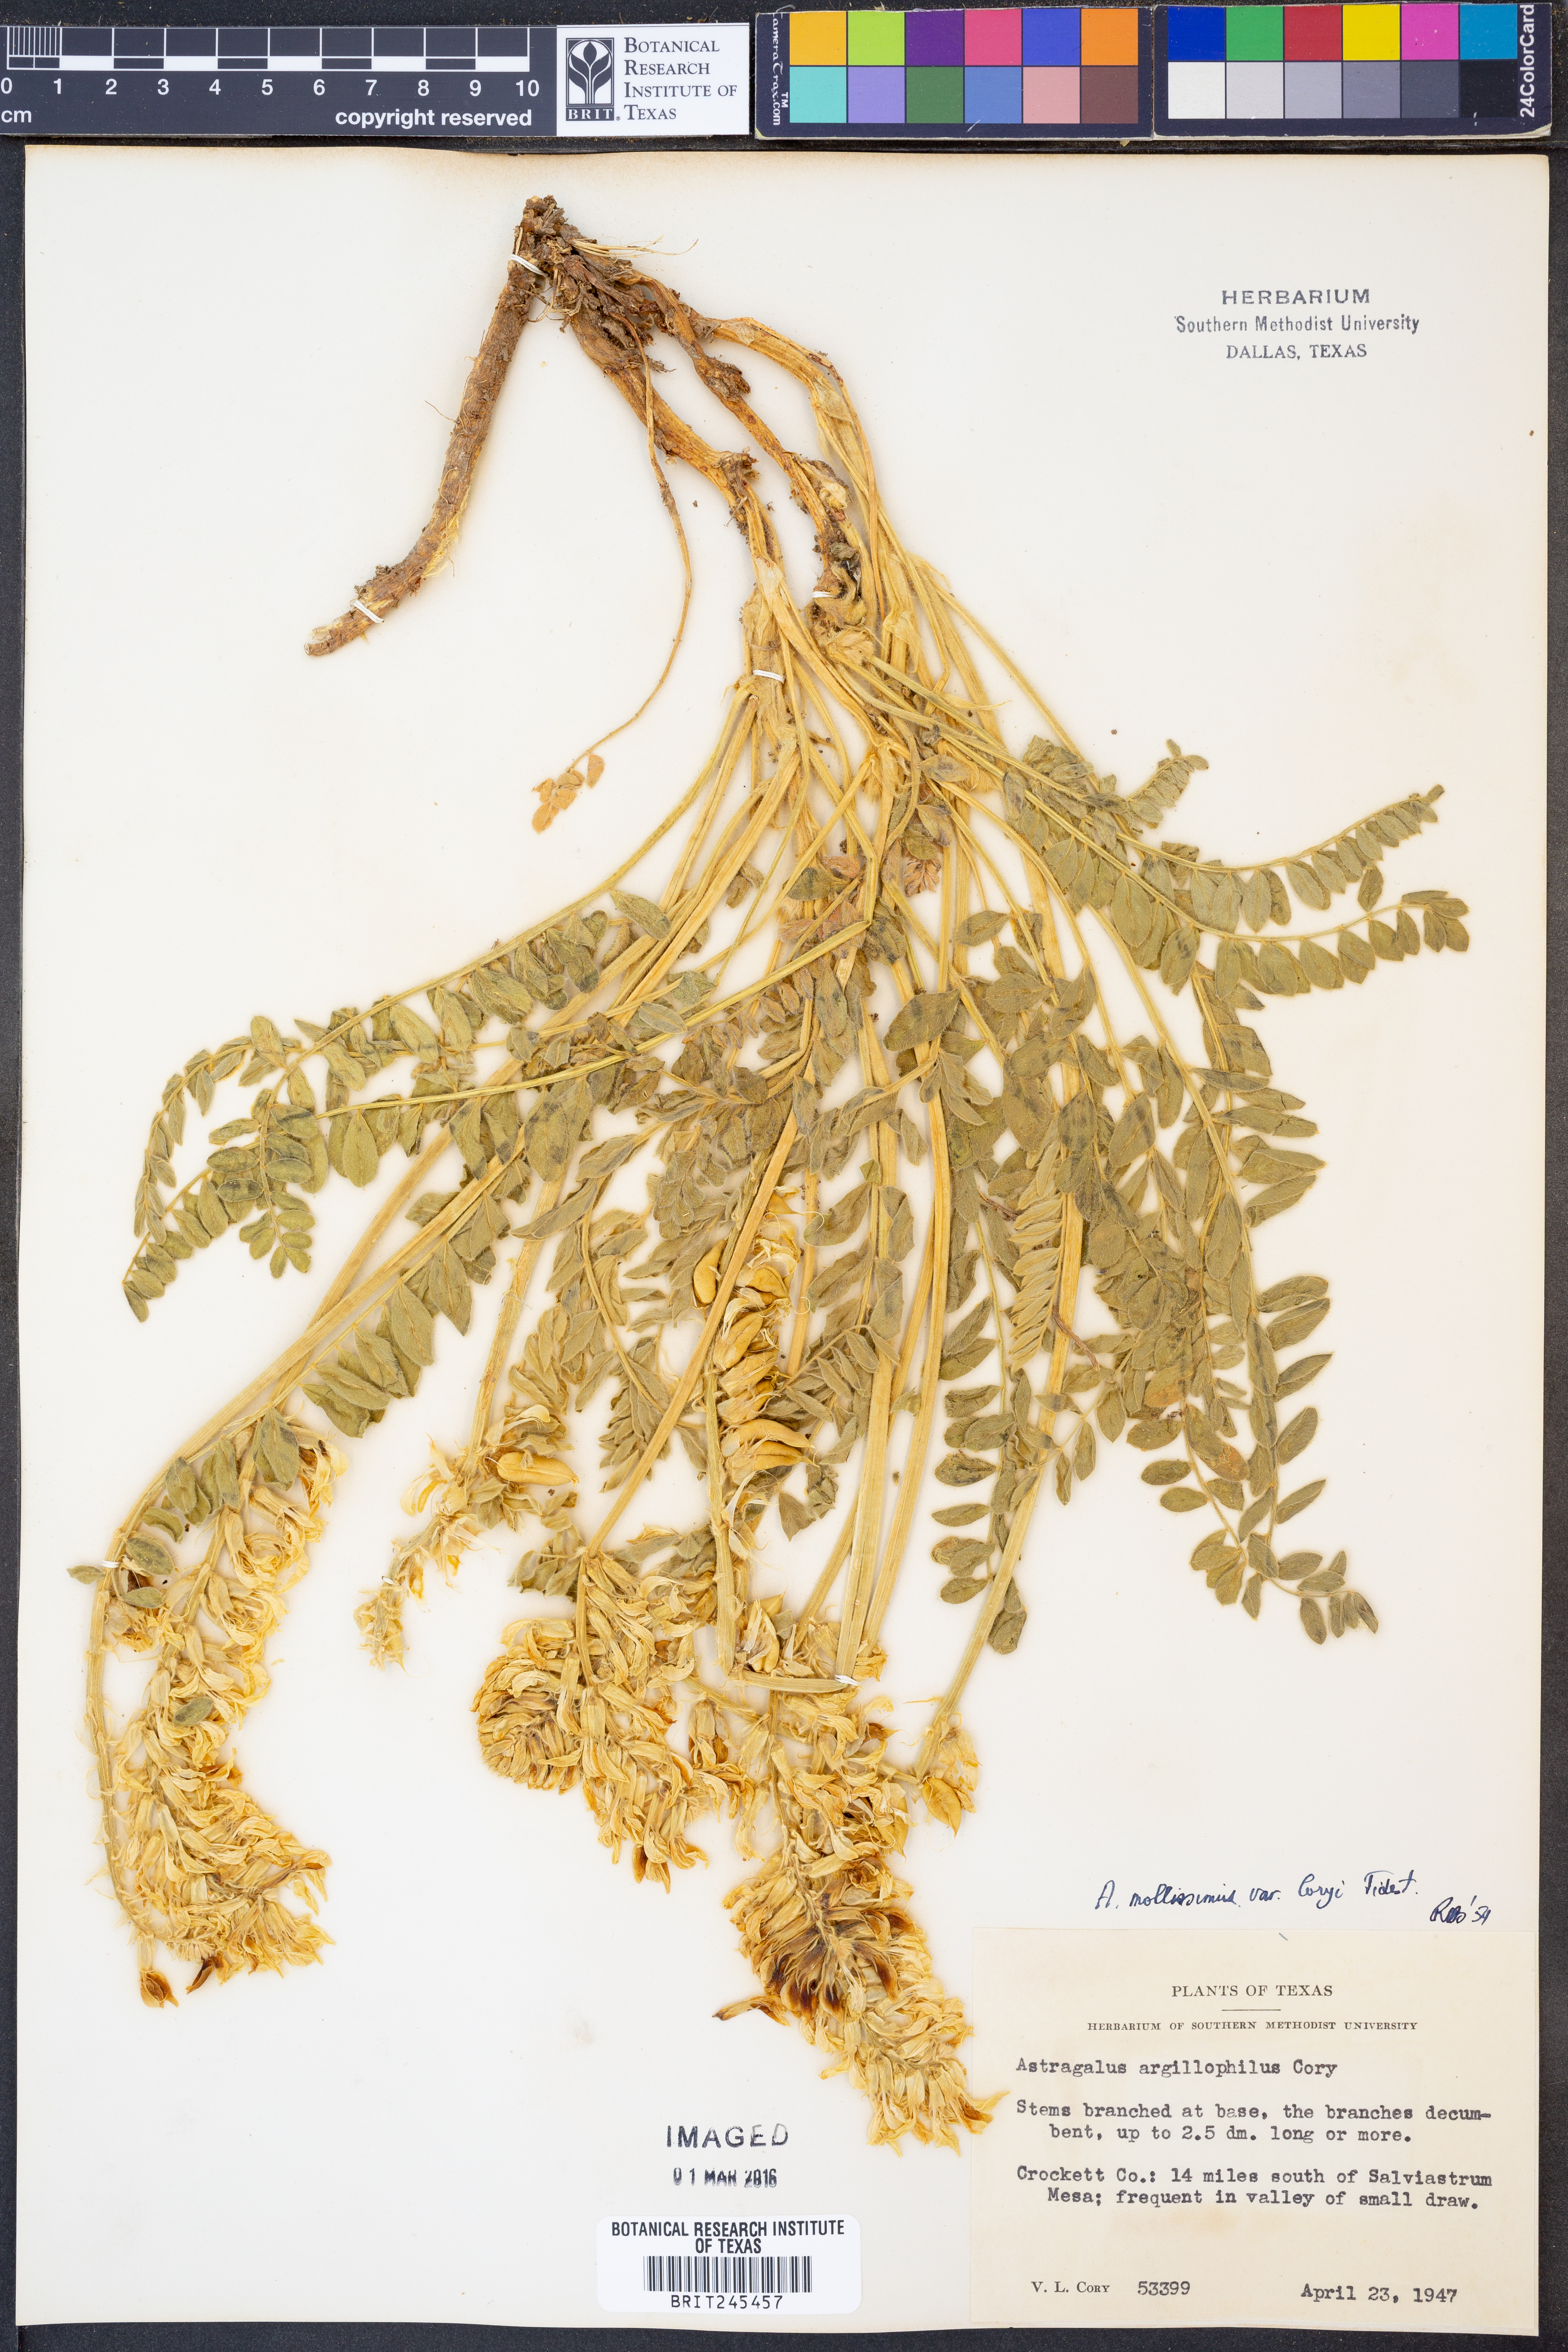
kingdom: Plantae
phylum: Tracheophyta
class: Magnoliopsida
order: Fabales
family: Fabaceae
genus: Astragalus
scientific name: Astragalus mollissimus
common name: Woolly locoweed
